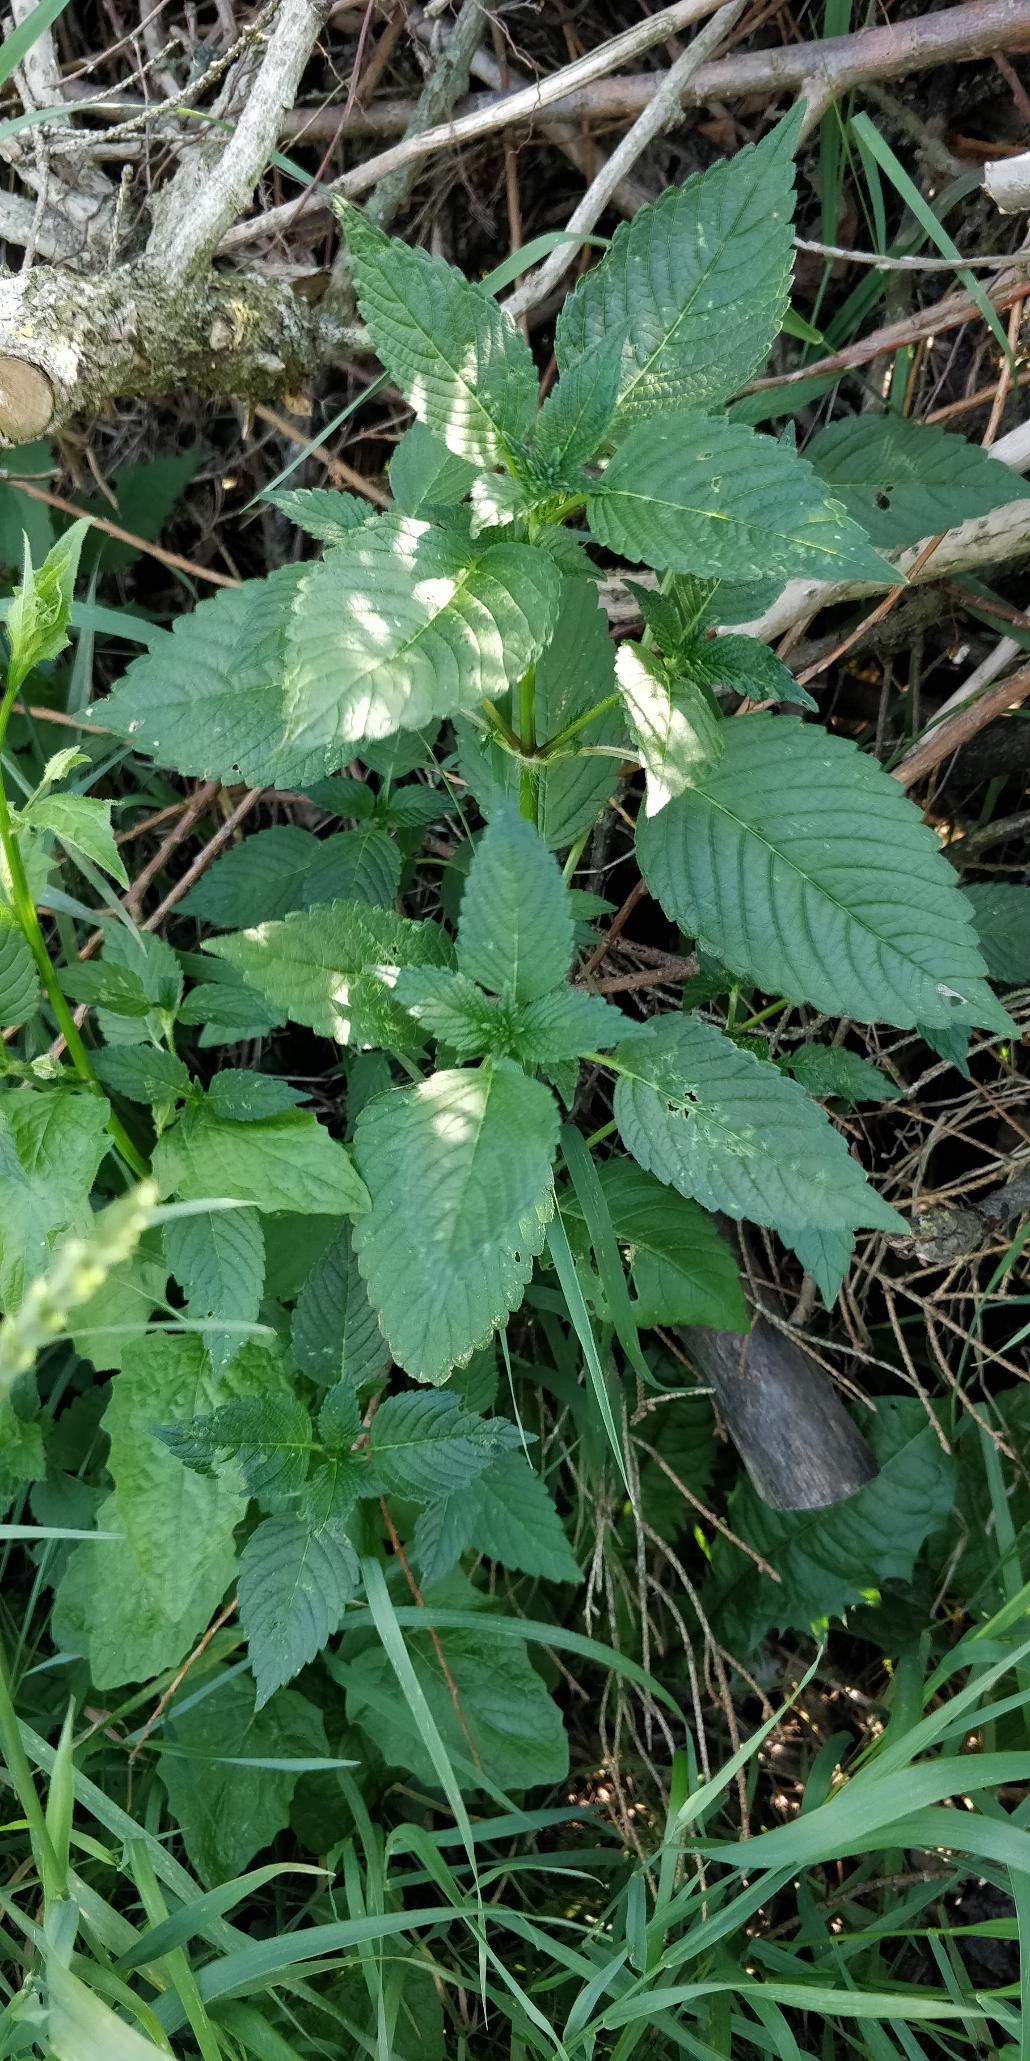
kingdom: Plantae
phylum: Tracheophyta
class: Magnoliopsida
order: Lamiales
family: Lamiaceae
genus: Galeopsis
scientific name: Galeopsis
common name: Hanekroslægten
